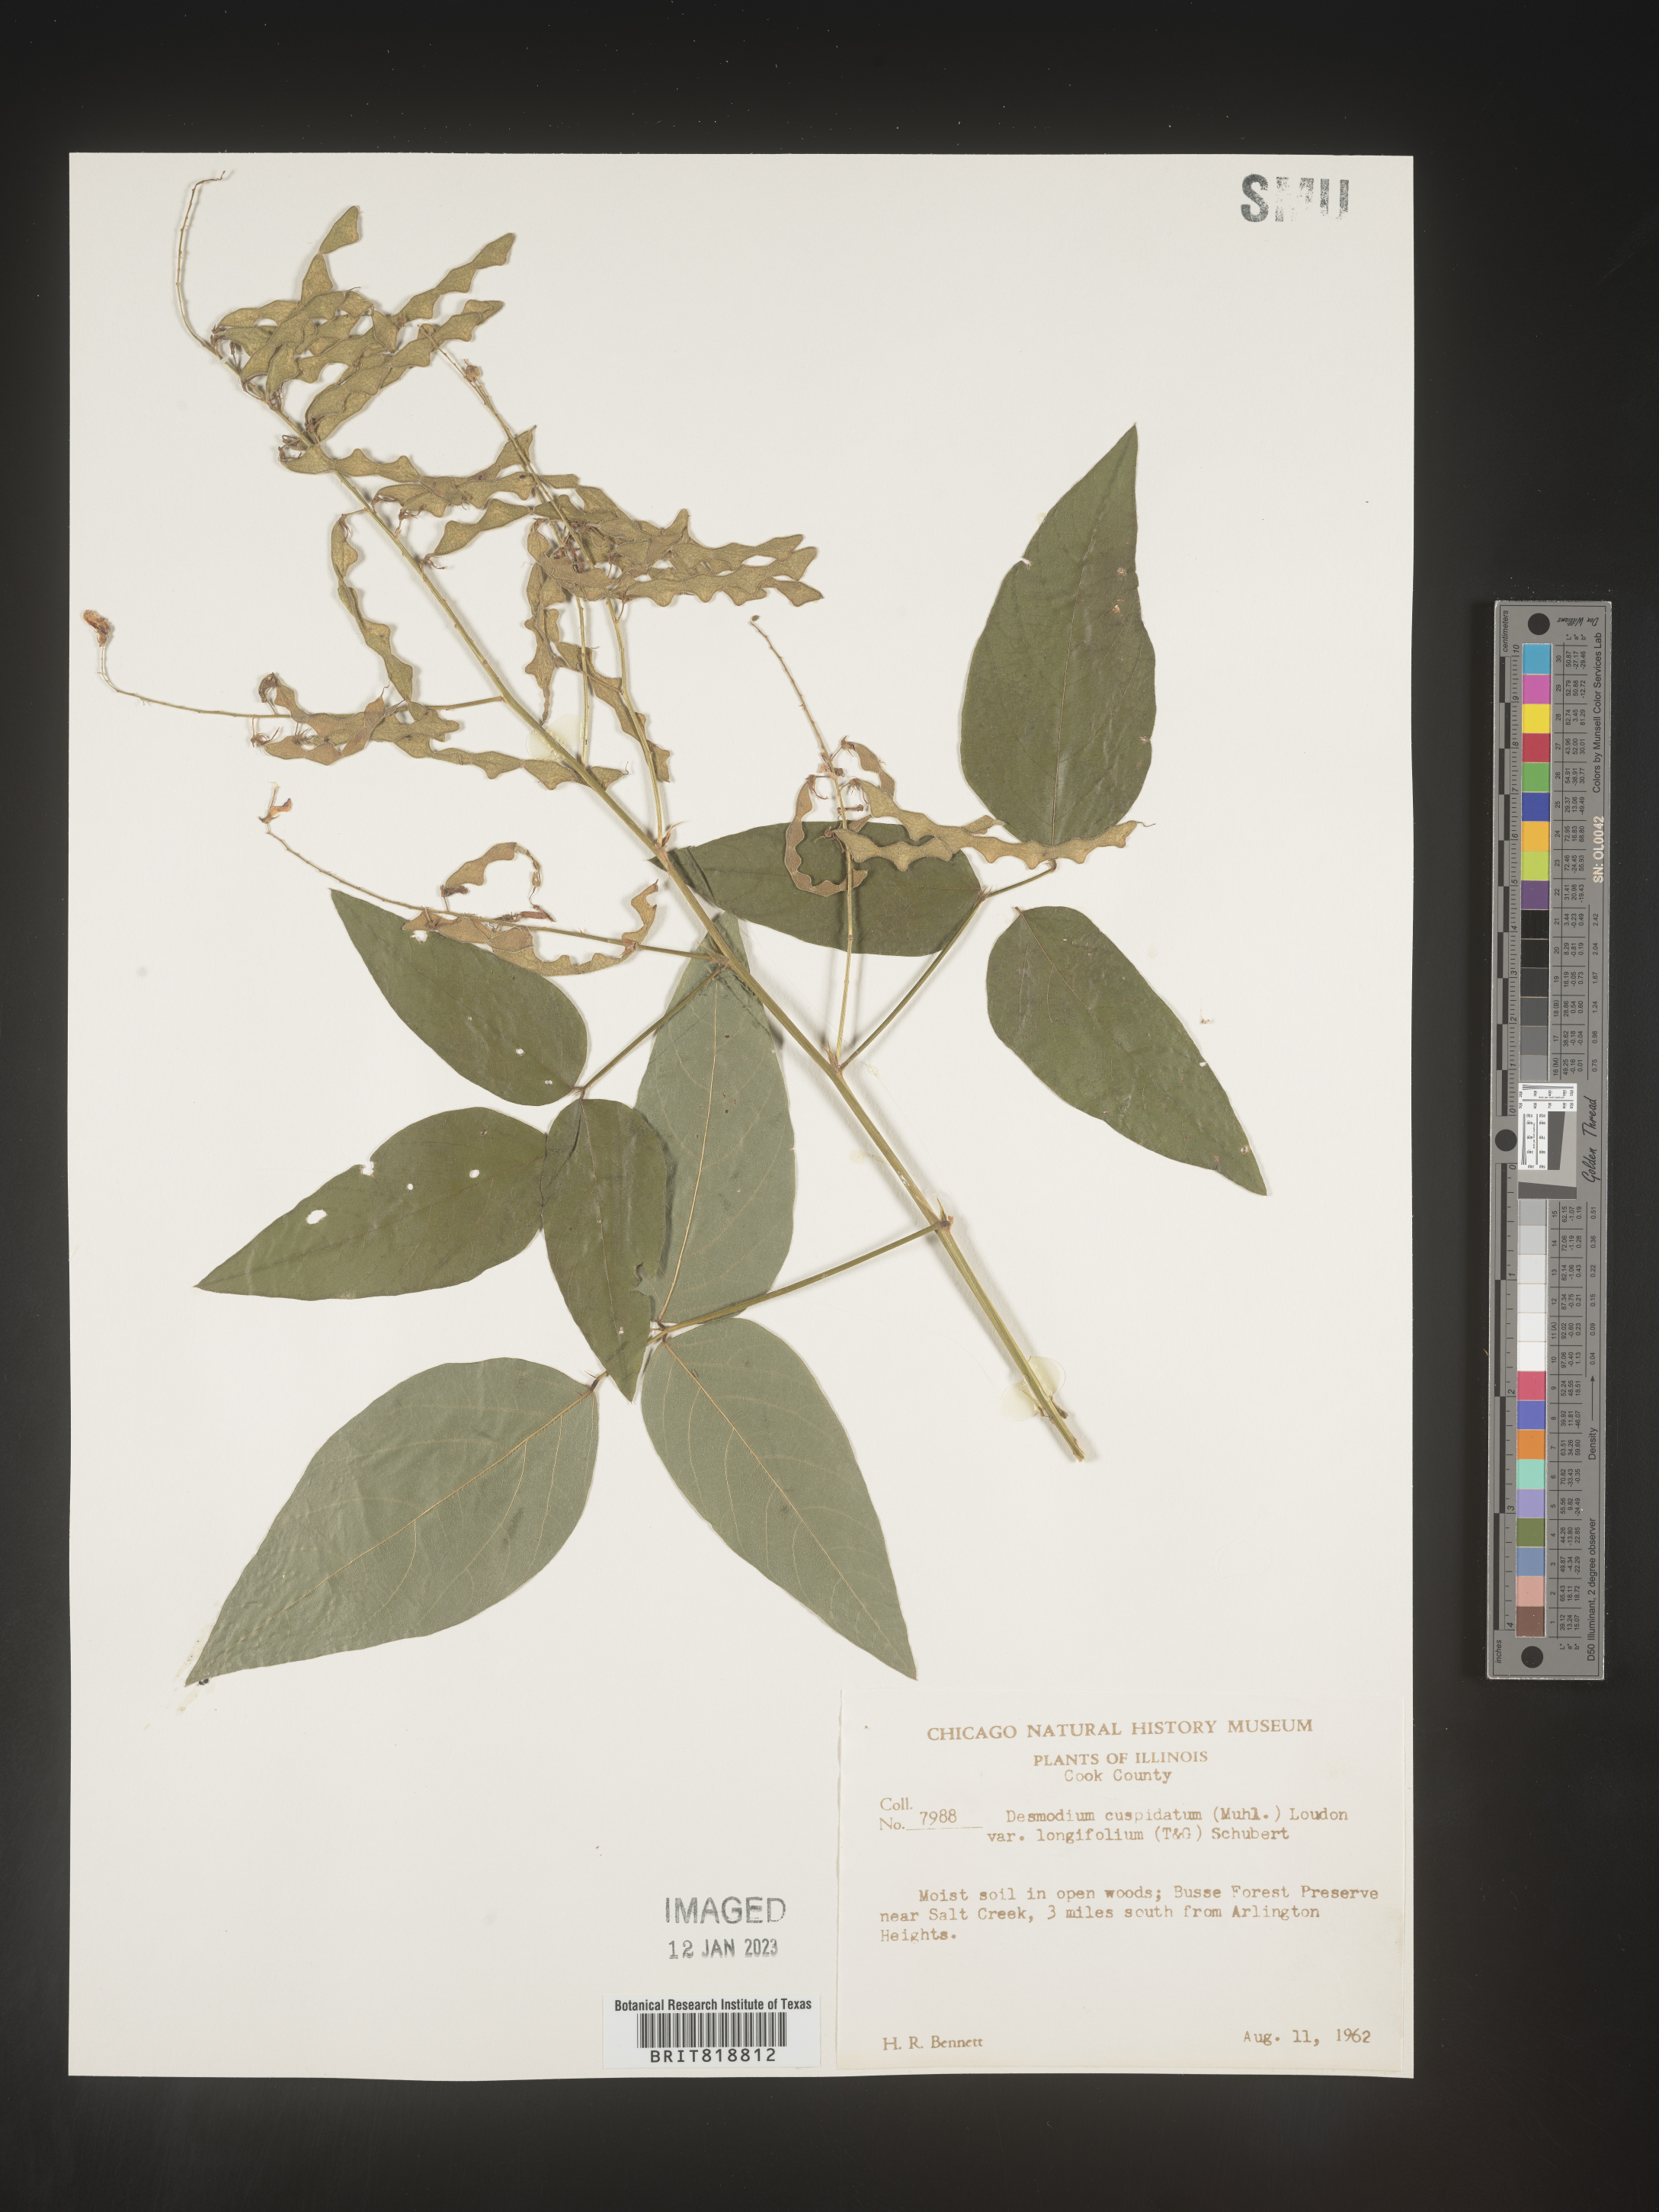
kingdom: Plantae
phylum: Tracheophyta
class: Magnoliopsida
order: Fabales
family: Fabaceae
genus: Desmodium
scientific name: Desmodium cuspidatum
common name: Big tick trefoil
